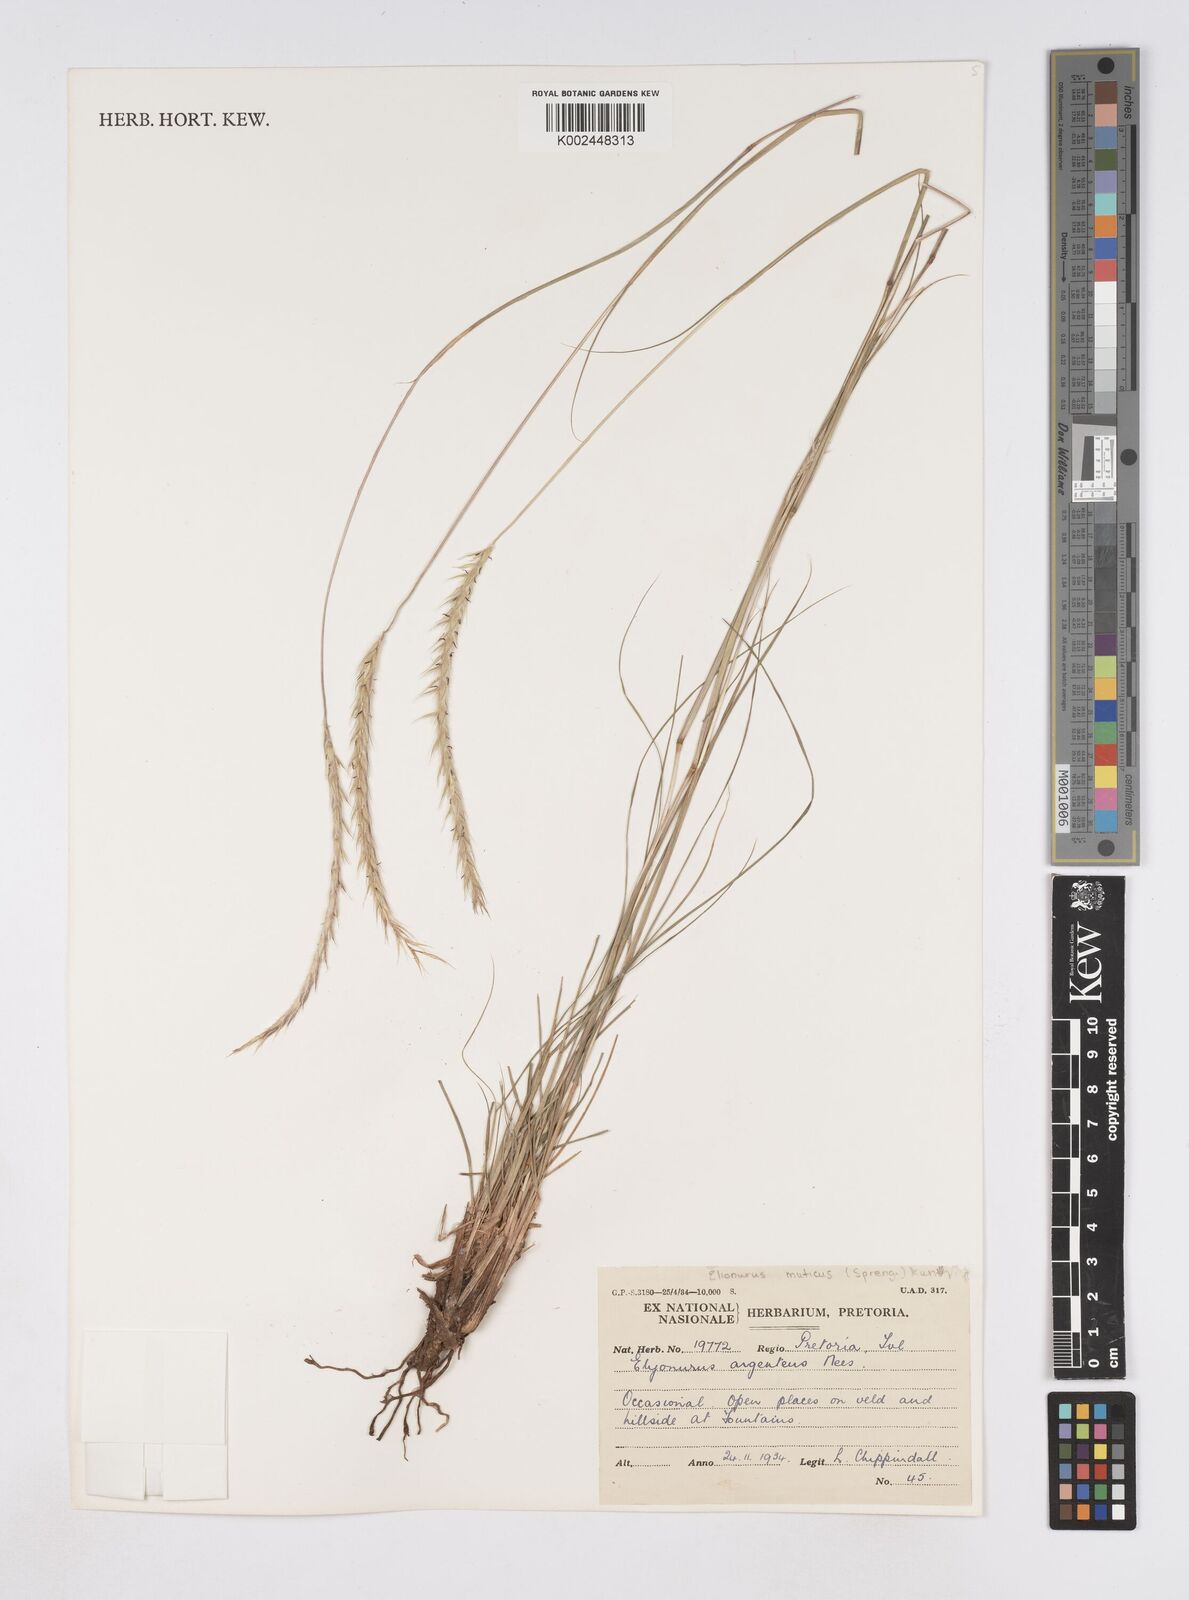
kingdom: Plantae
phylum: Tracheophyta
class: Liliopsida
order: Poales
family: Poaceae
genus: Elionurus
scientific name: Elionurus muticus
